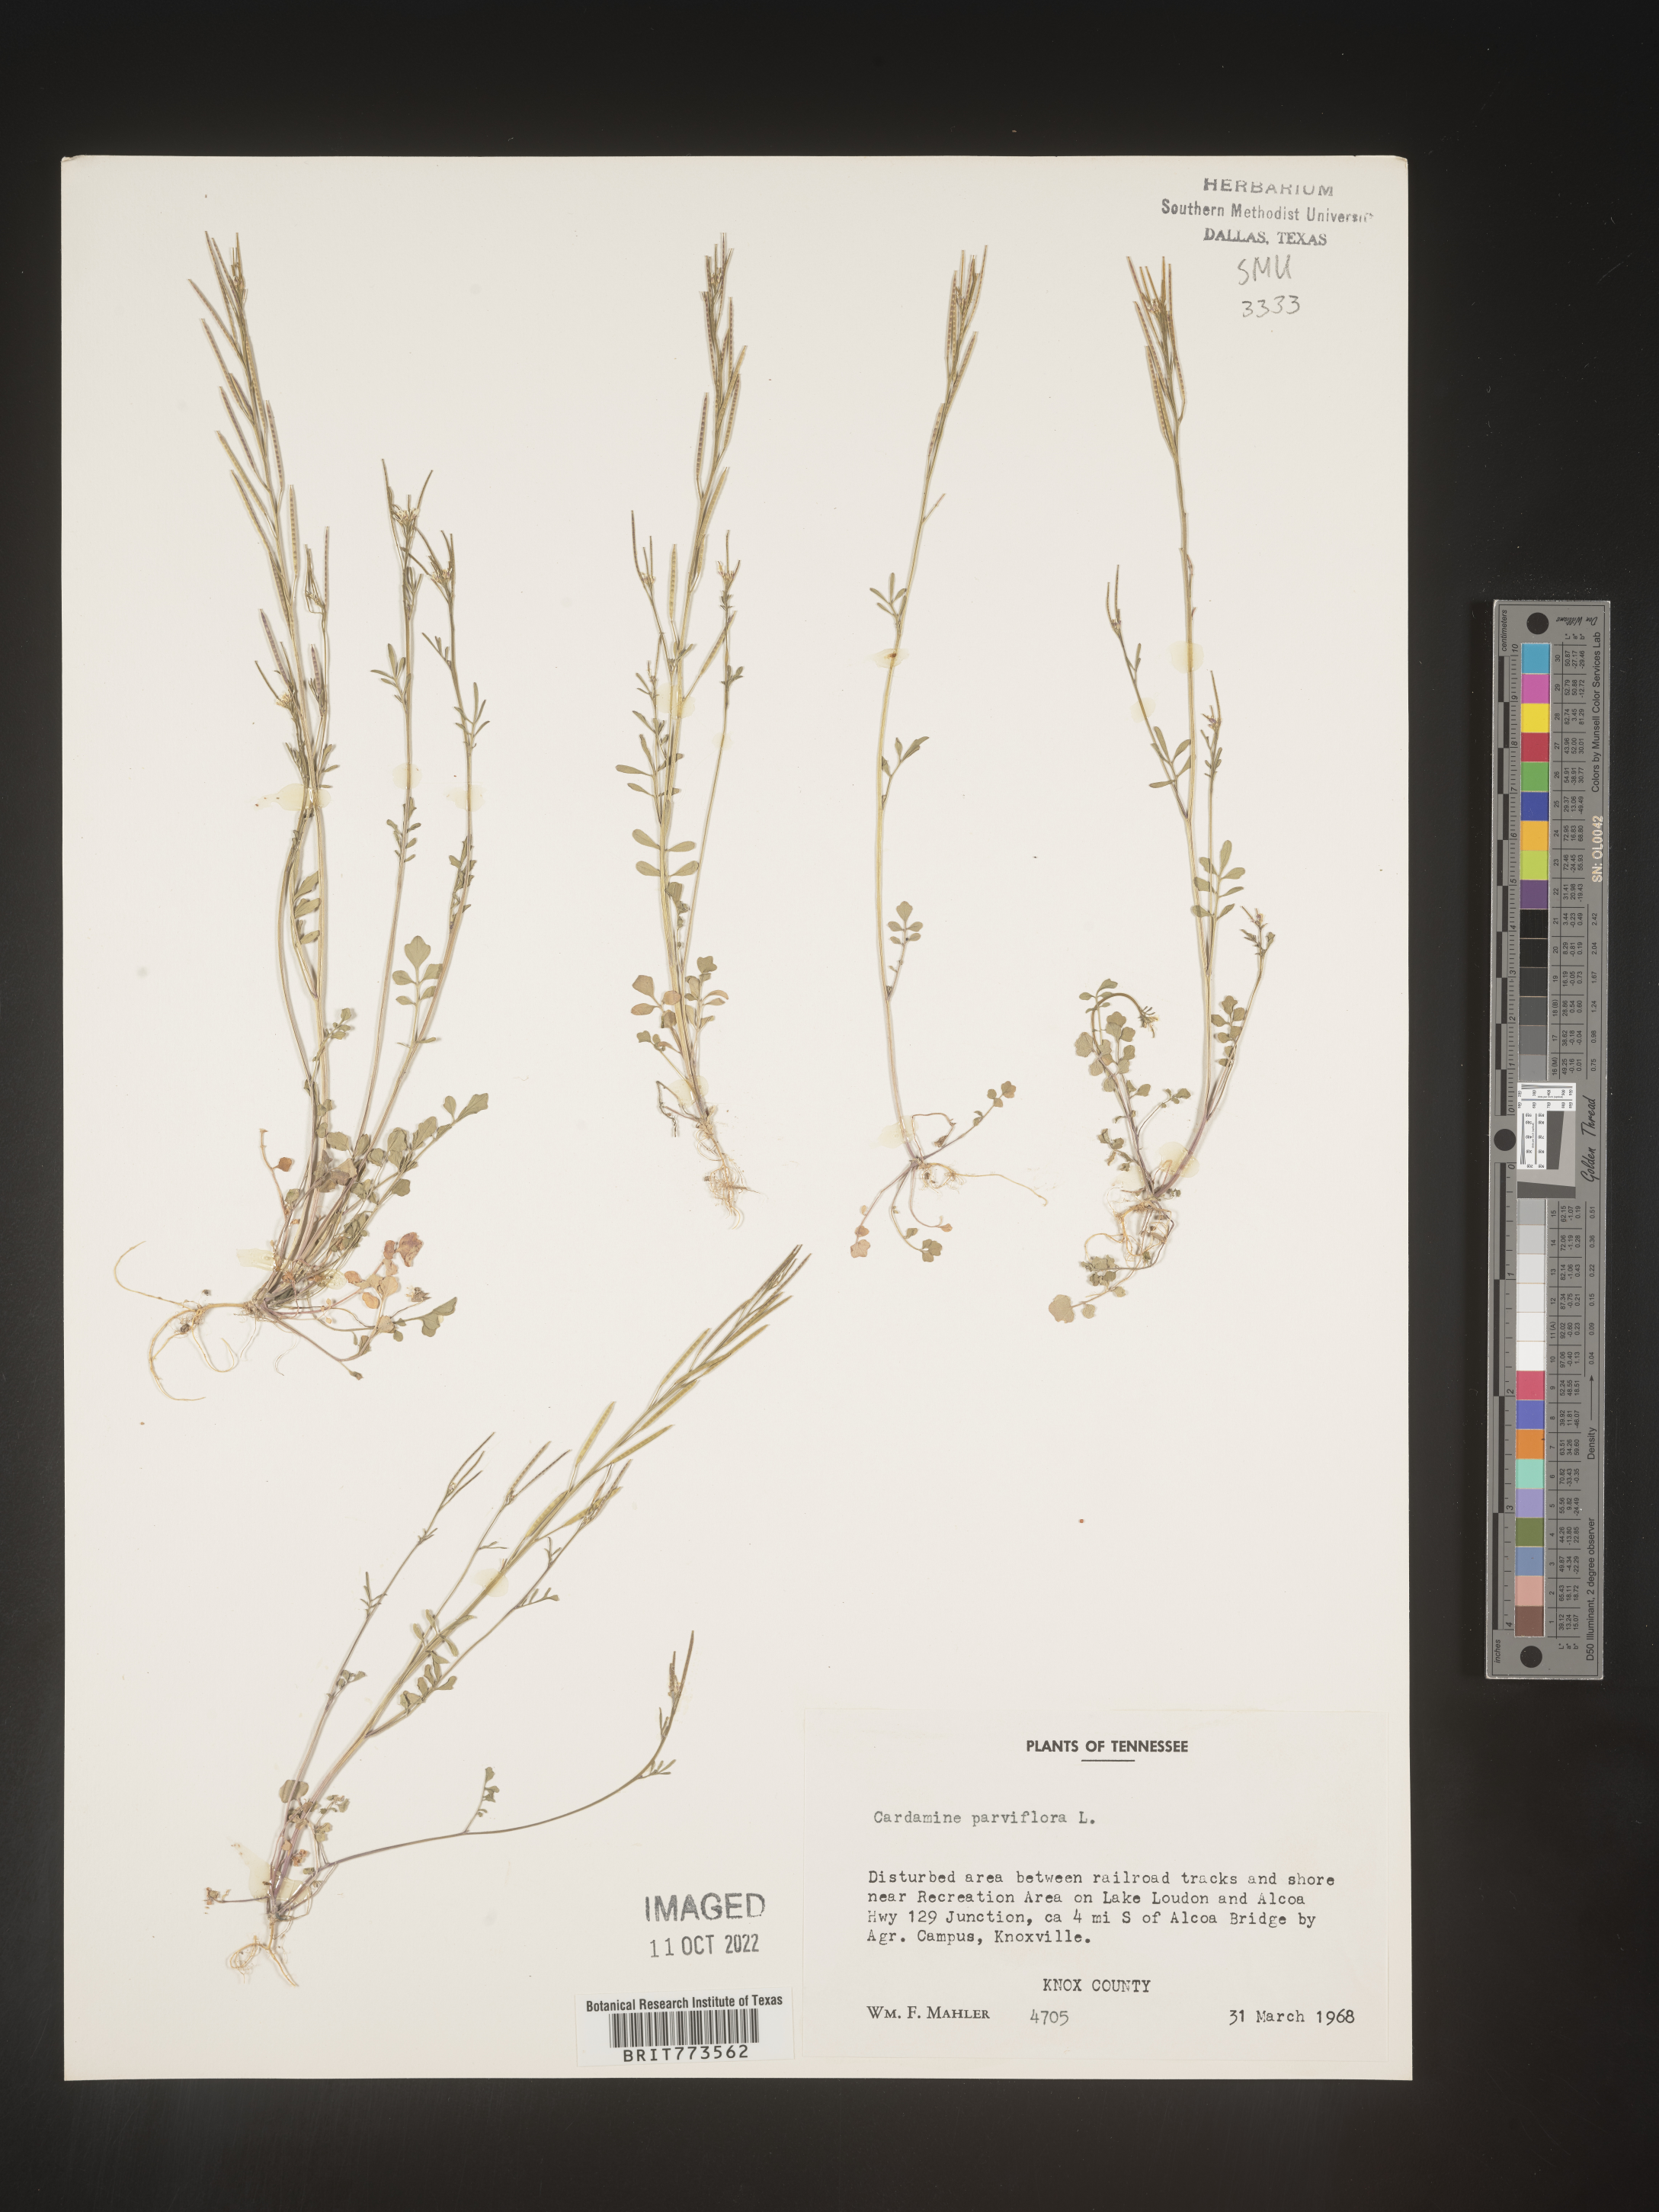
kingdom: Plantae
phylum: Tracheophyta
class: Magnoliopsida
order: Brassicales
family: Brassicaceae
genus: Cardamine
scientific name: Cardamine parviflora
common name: Sand bittercress
